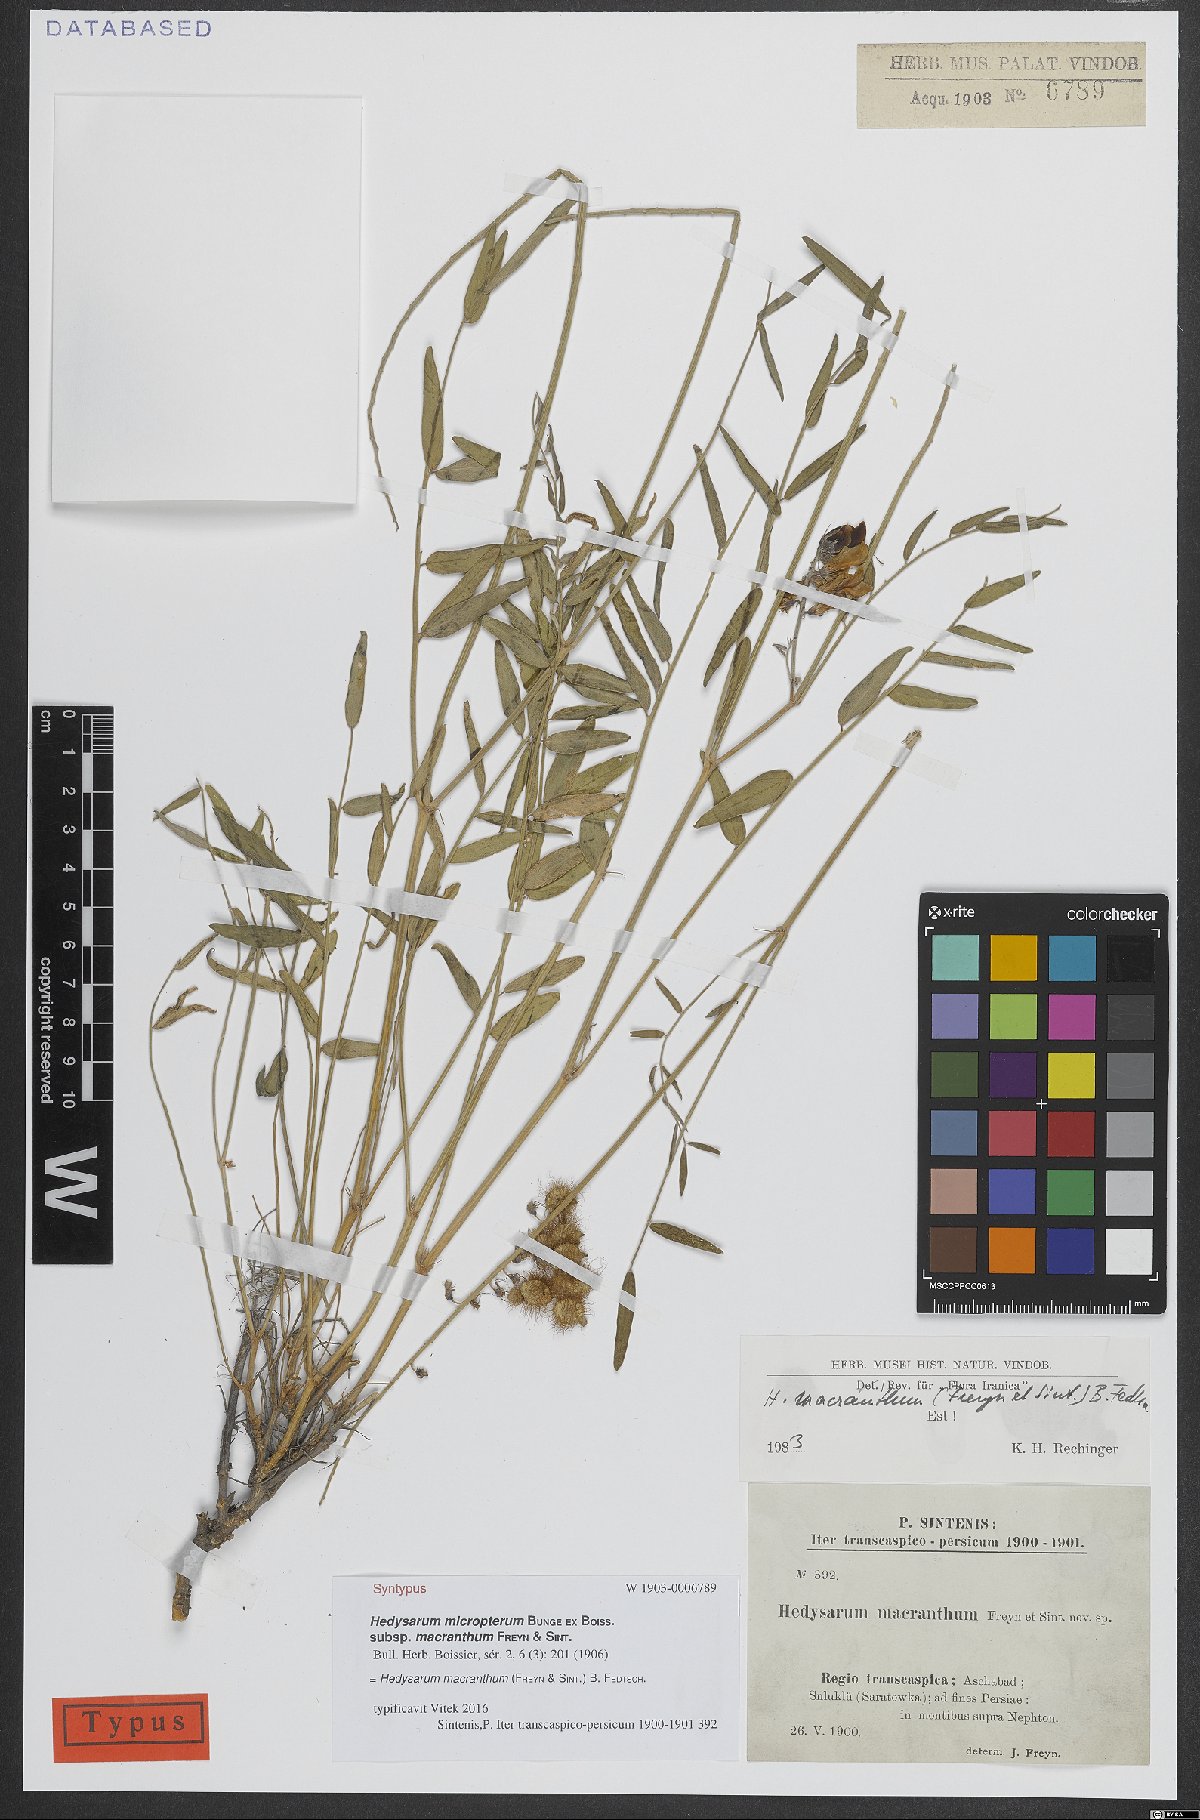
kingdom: Plantae
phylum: Tracheophyta
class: Magnoliopsida
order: Fabales
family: Fabaceae
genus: Hedysarum
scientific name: Hedysarum macranthum
